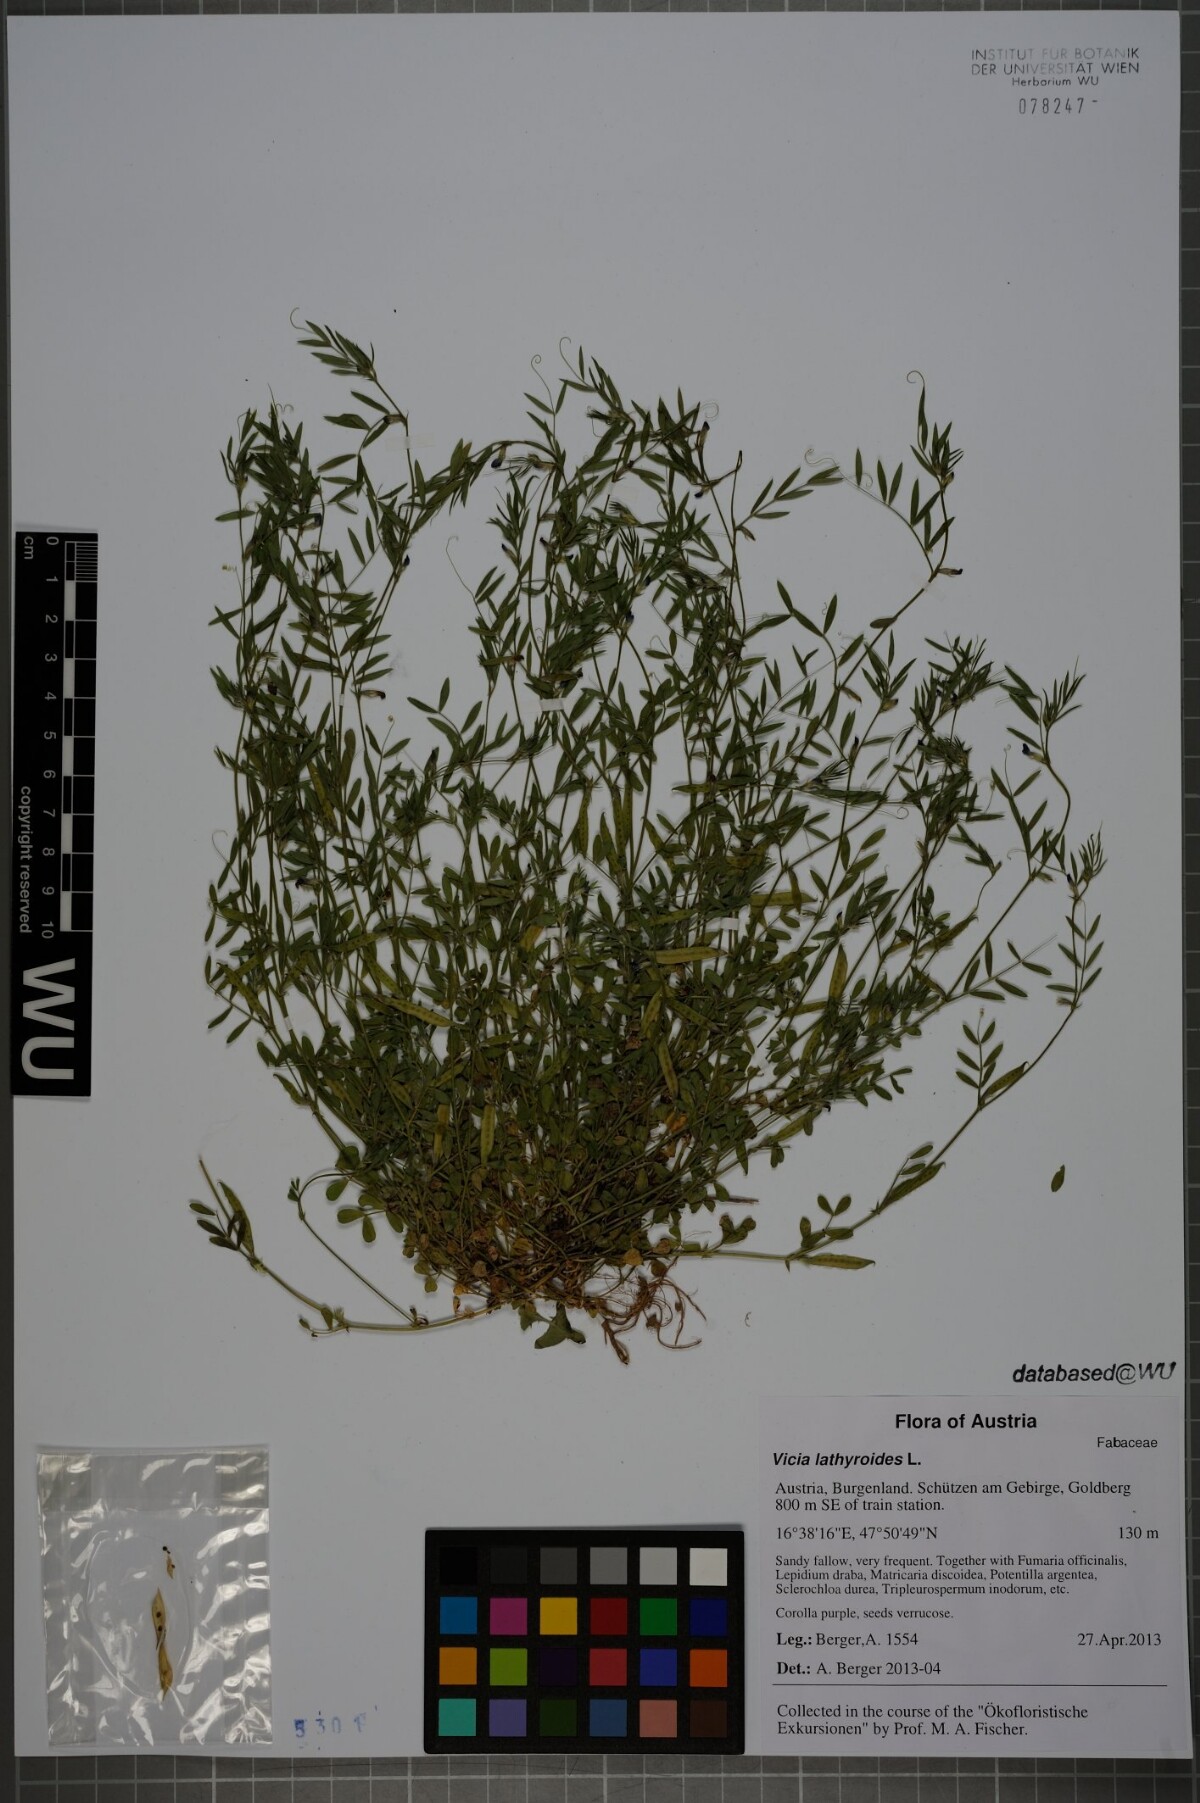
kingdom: Plantae
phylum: Tracheophyta
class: Magnoliopsida
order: Fabales
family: Fabaceae
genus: Vicia
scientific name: Vicia lathyroides
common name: Spring vetch
